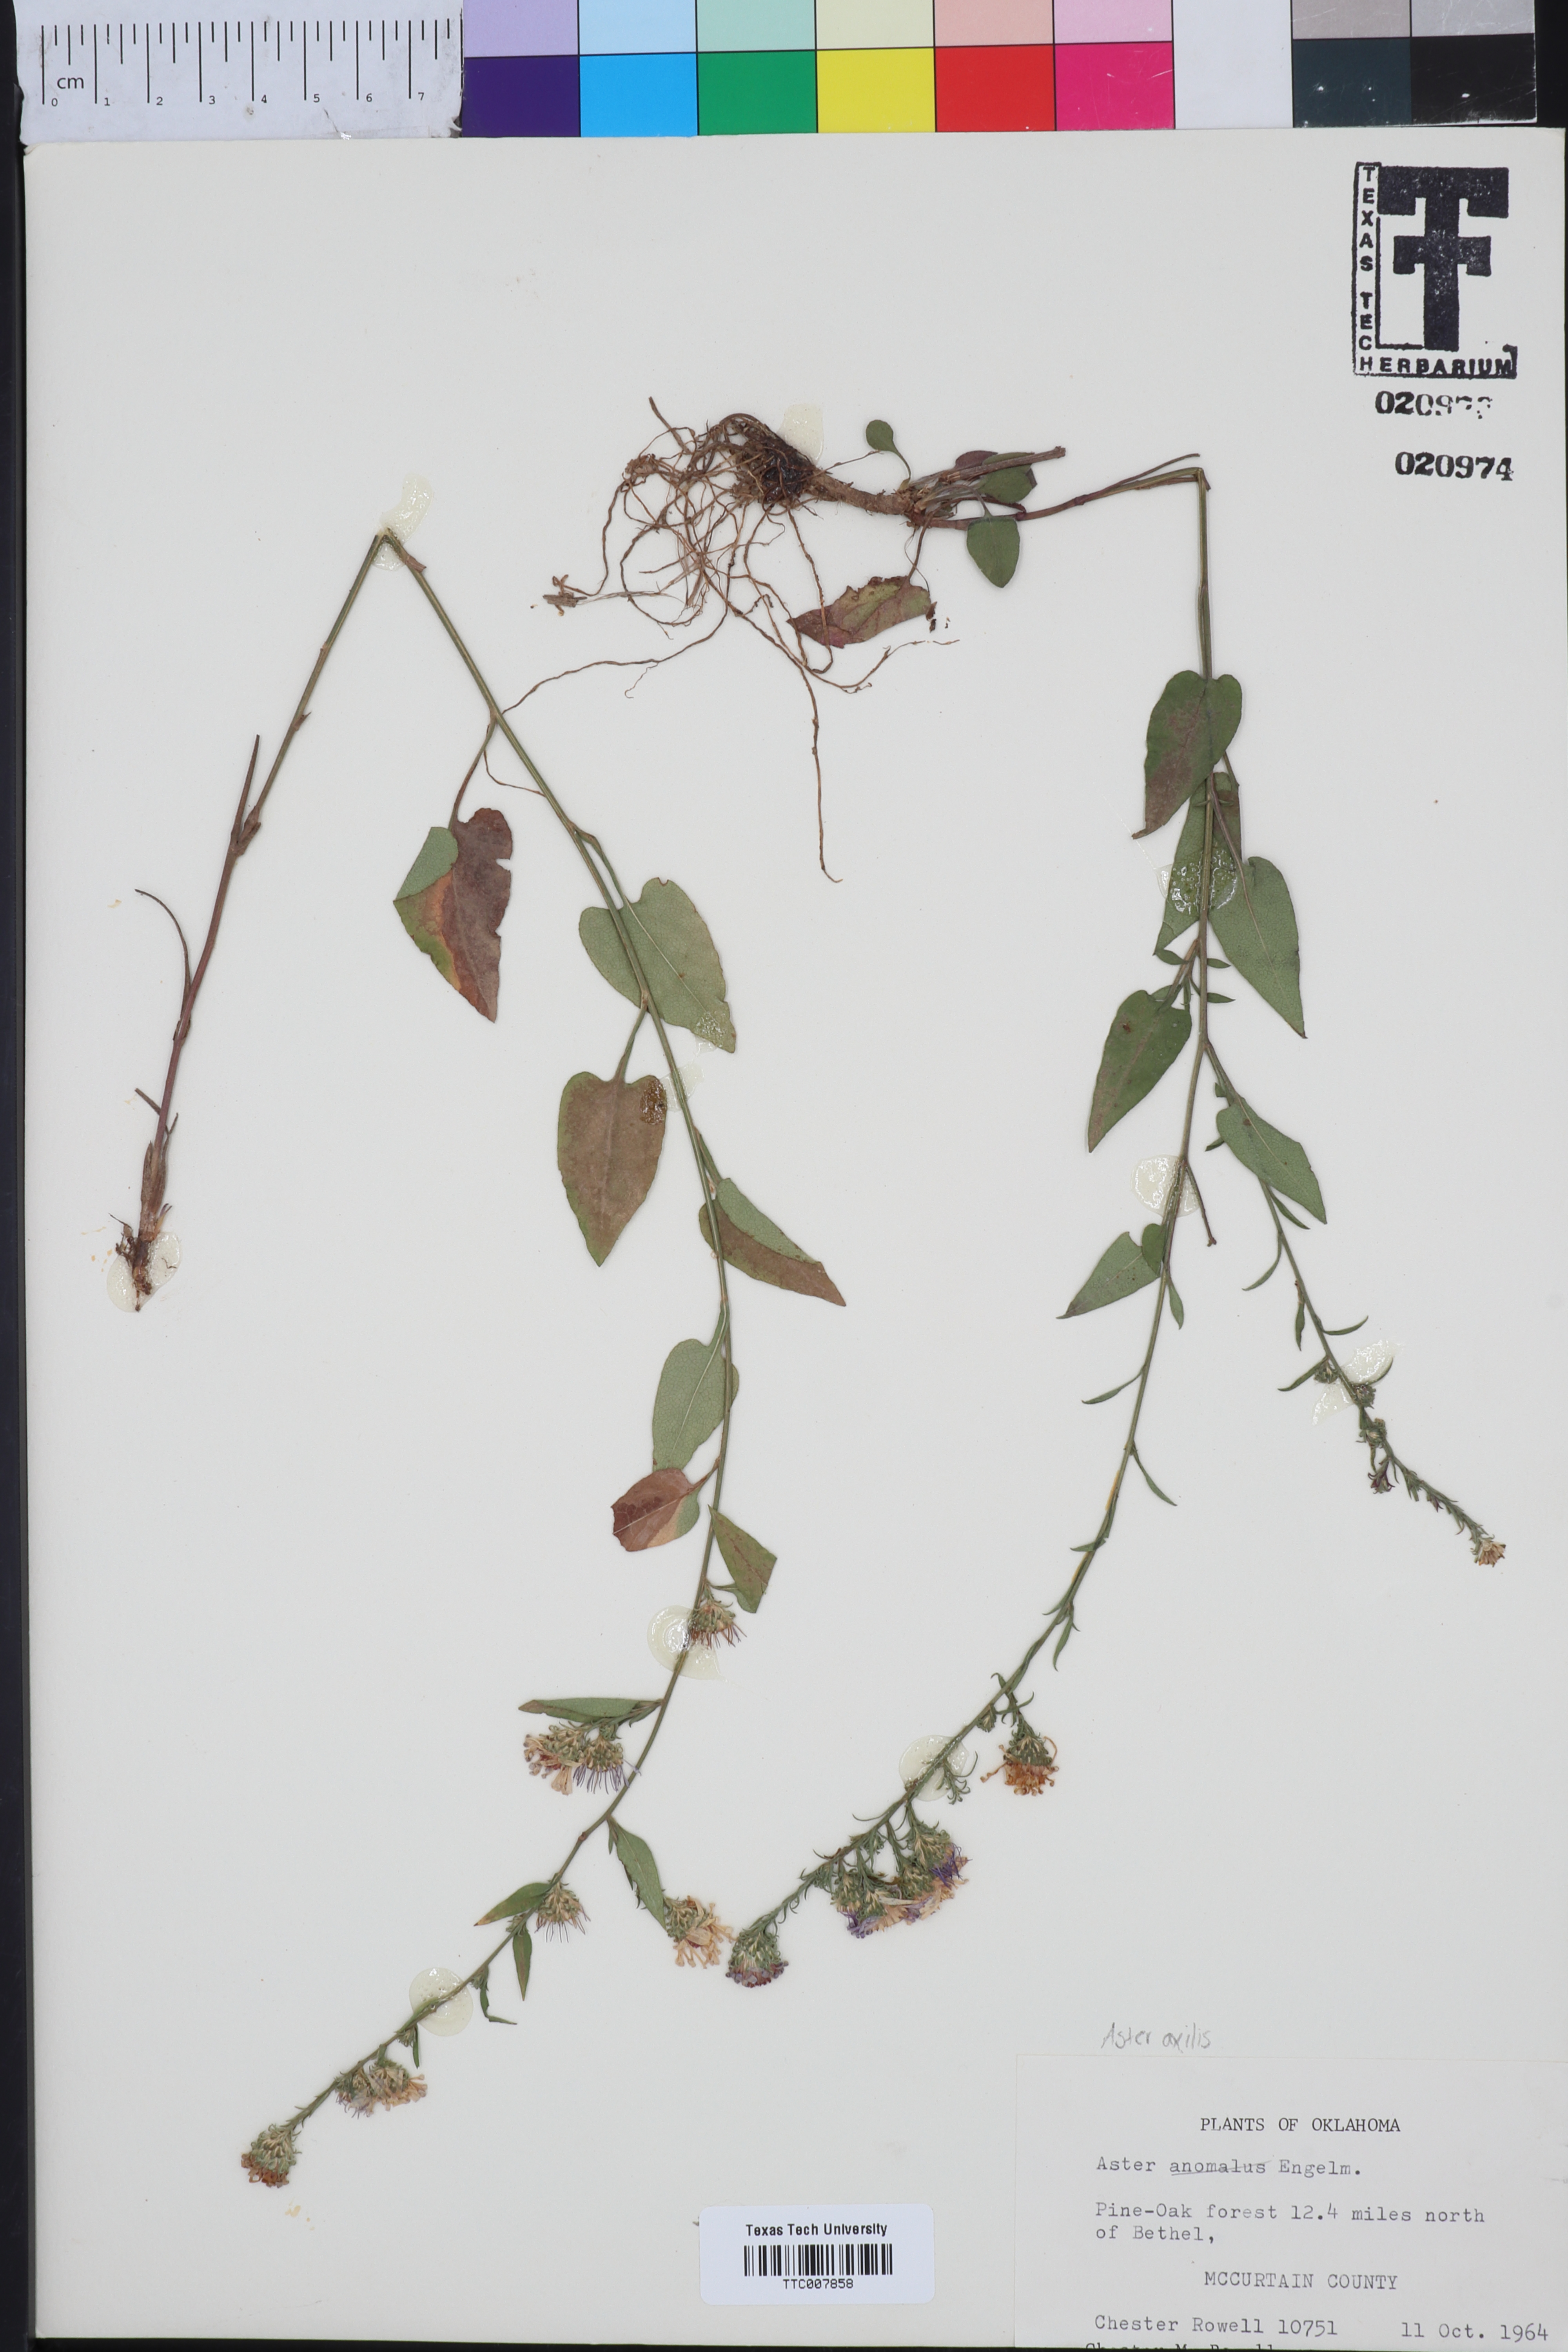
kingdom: Plantae
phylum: Tracheophyta
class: Magnoliopsida
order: Asterales
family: Asteraceae
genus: Symphyotrichum
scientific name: Symphyotrichum anomalum
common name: Many-ray aster
